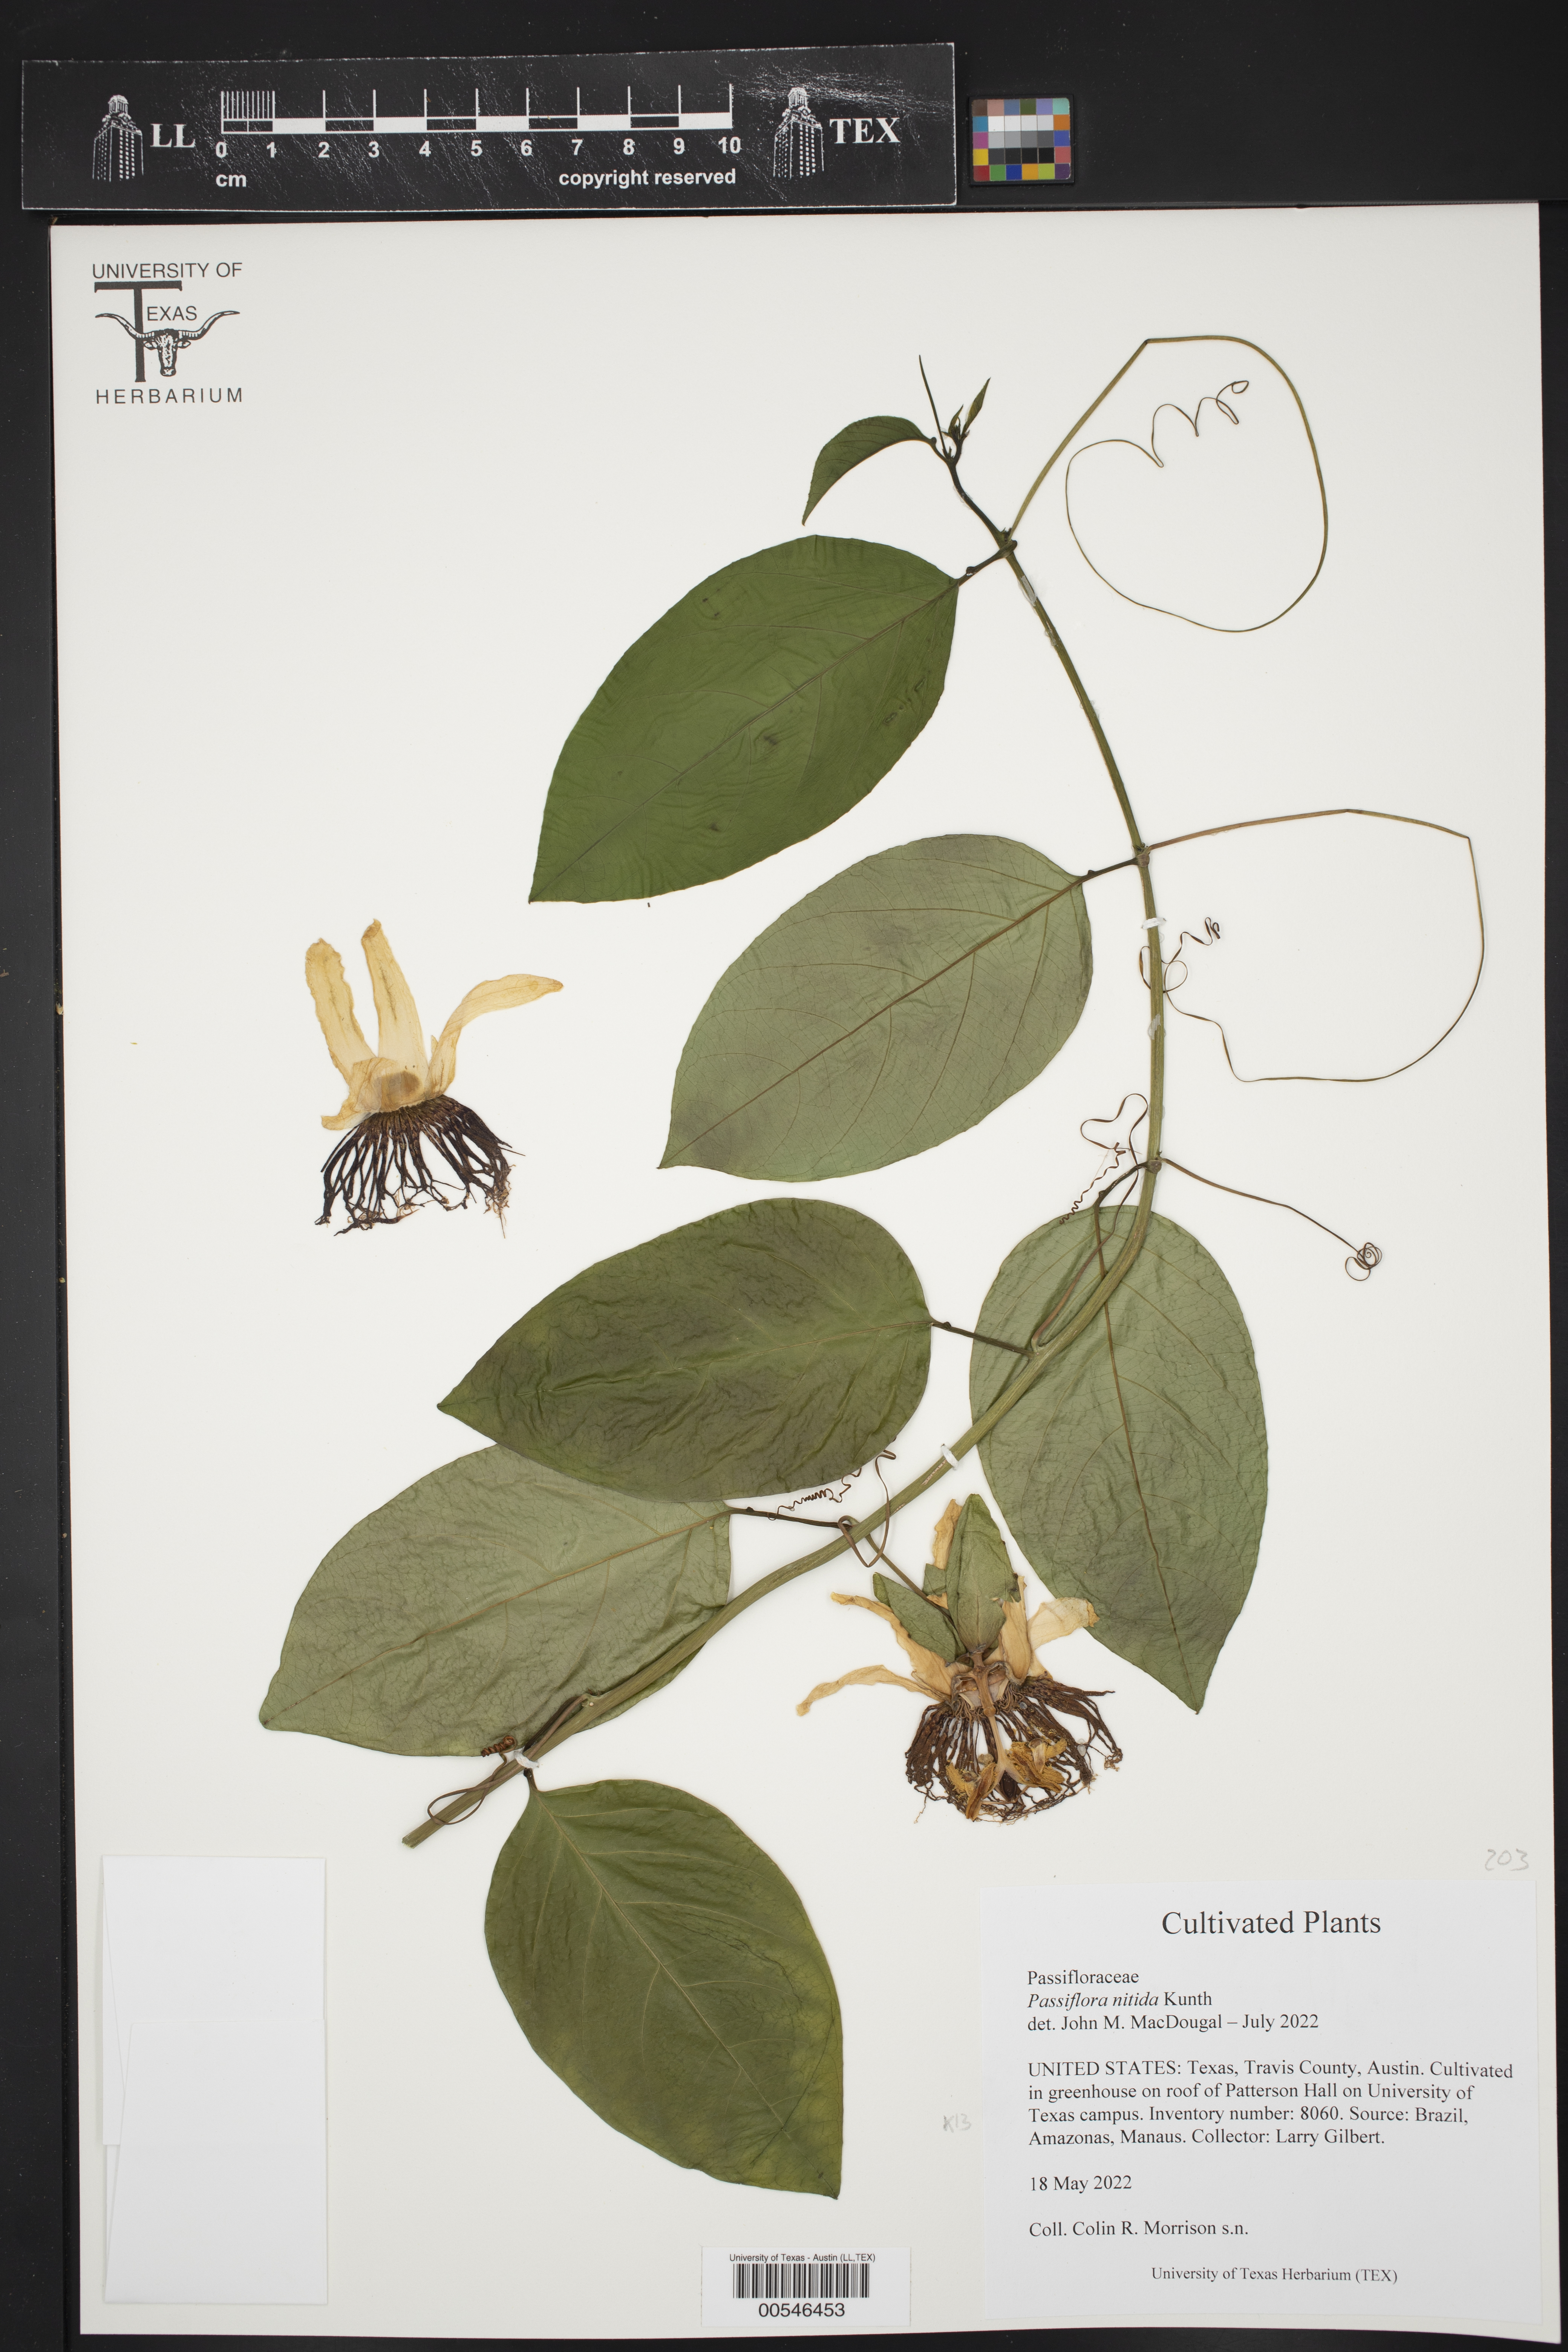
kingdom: Plantae
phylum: Tracheophyta
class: Magnoliopsida
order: Malpighiales
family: Passifloraceae
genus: Passiflora
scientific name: Passiflora nitida
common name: Bell-apple
